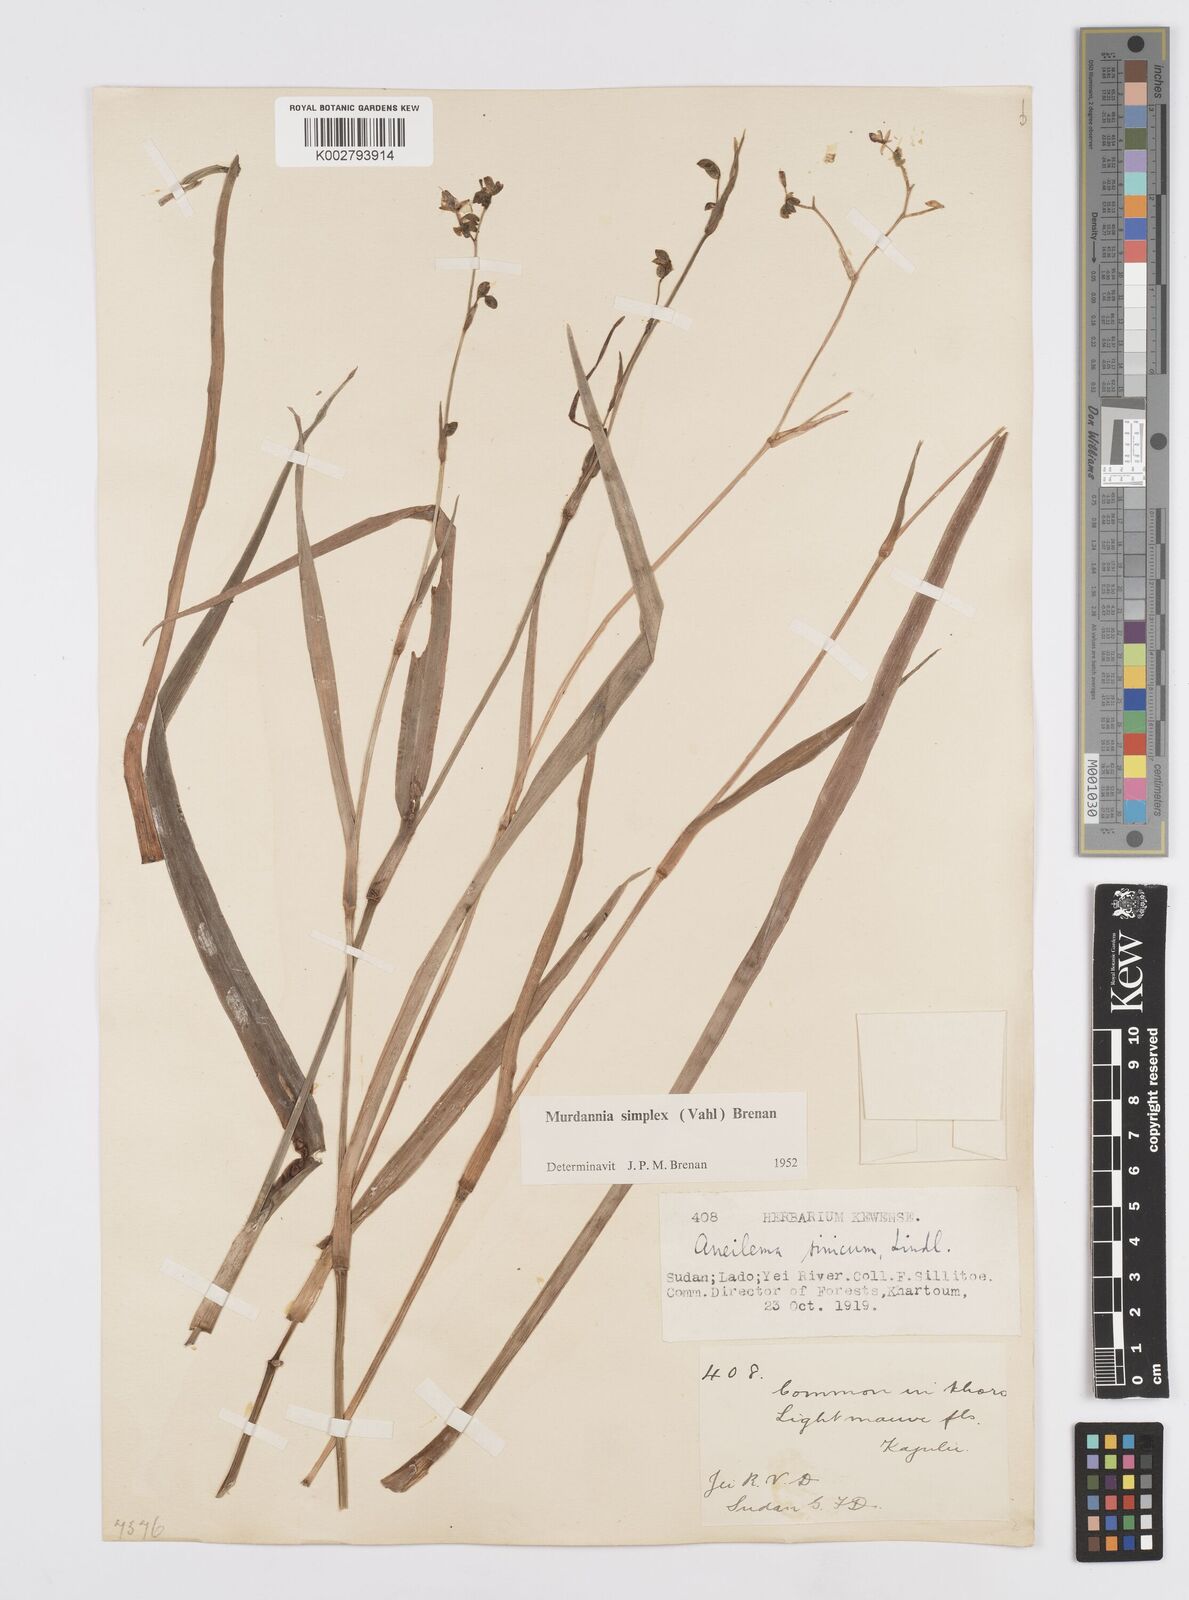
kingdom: Plantae
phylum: Tracheophyta
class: Liliopsida
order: Commelinales
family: Commelinaceae
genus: Murdannia
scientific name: Murdannia simplex
